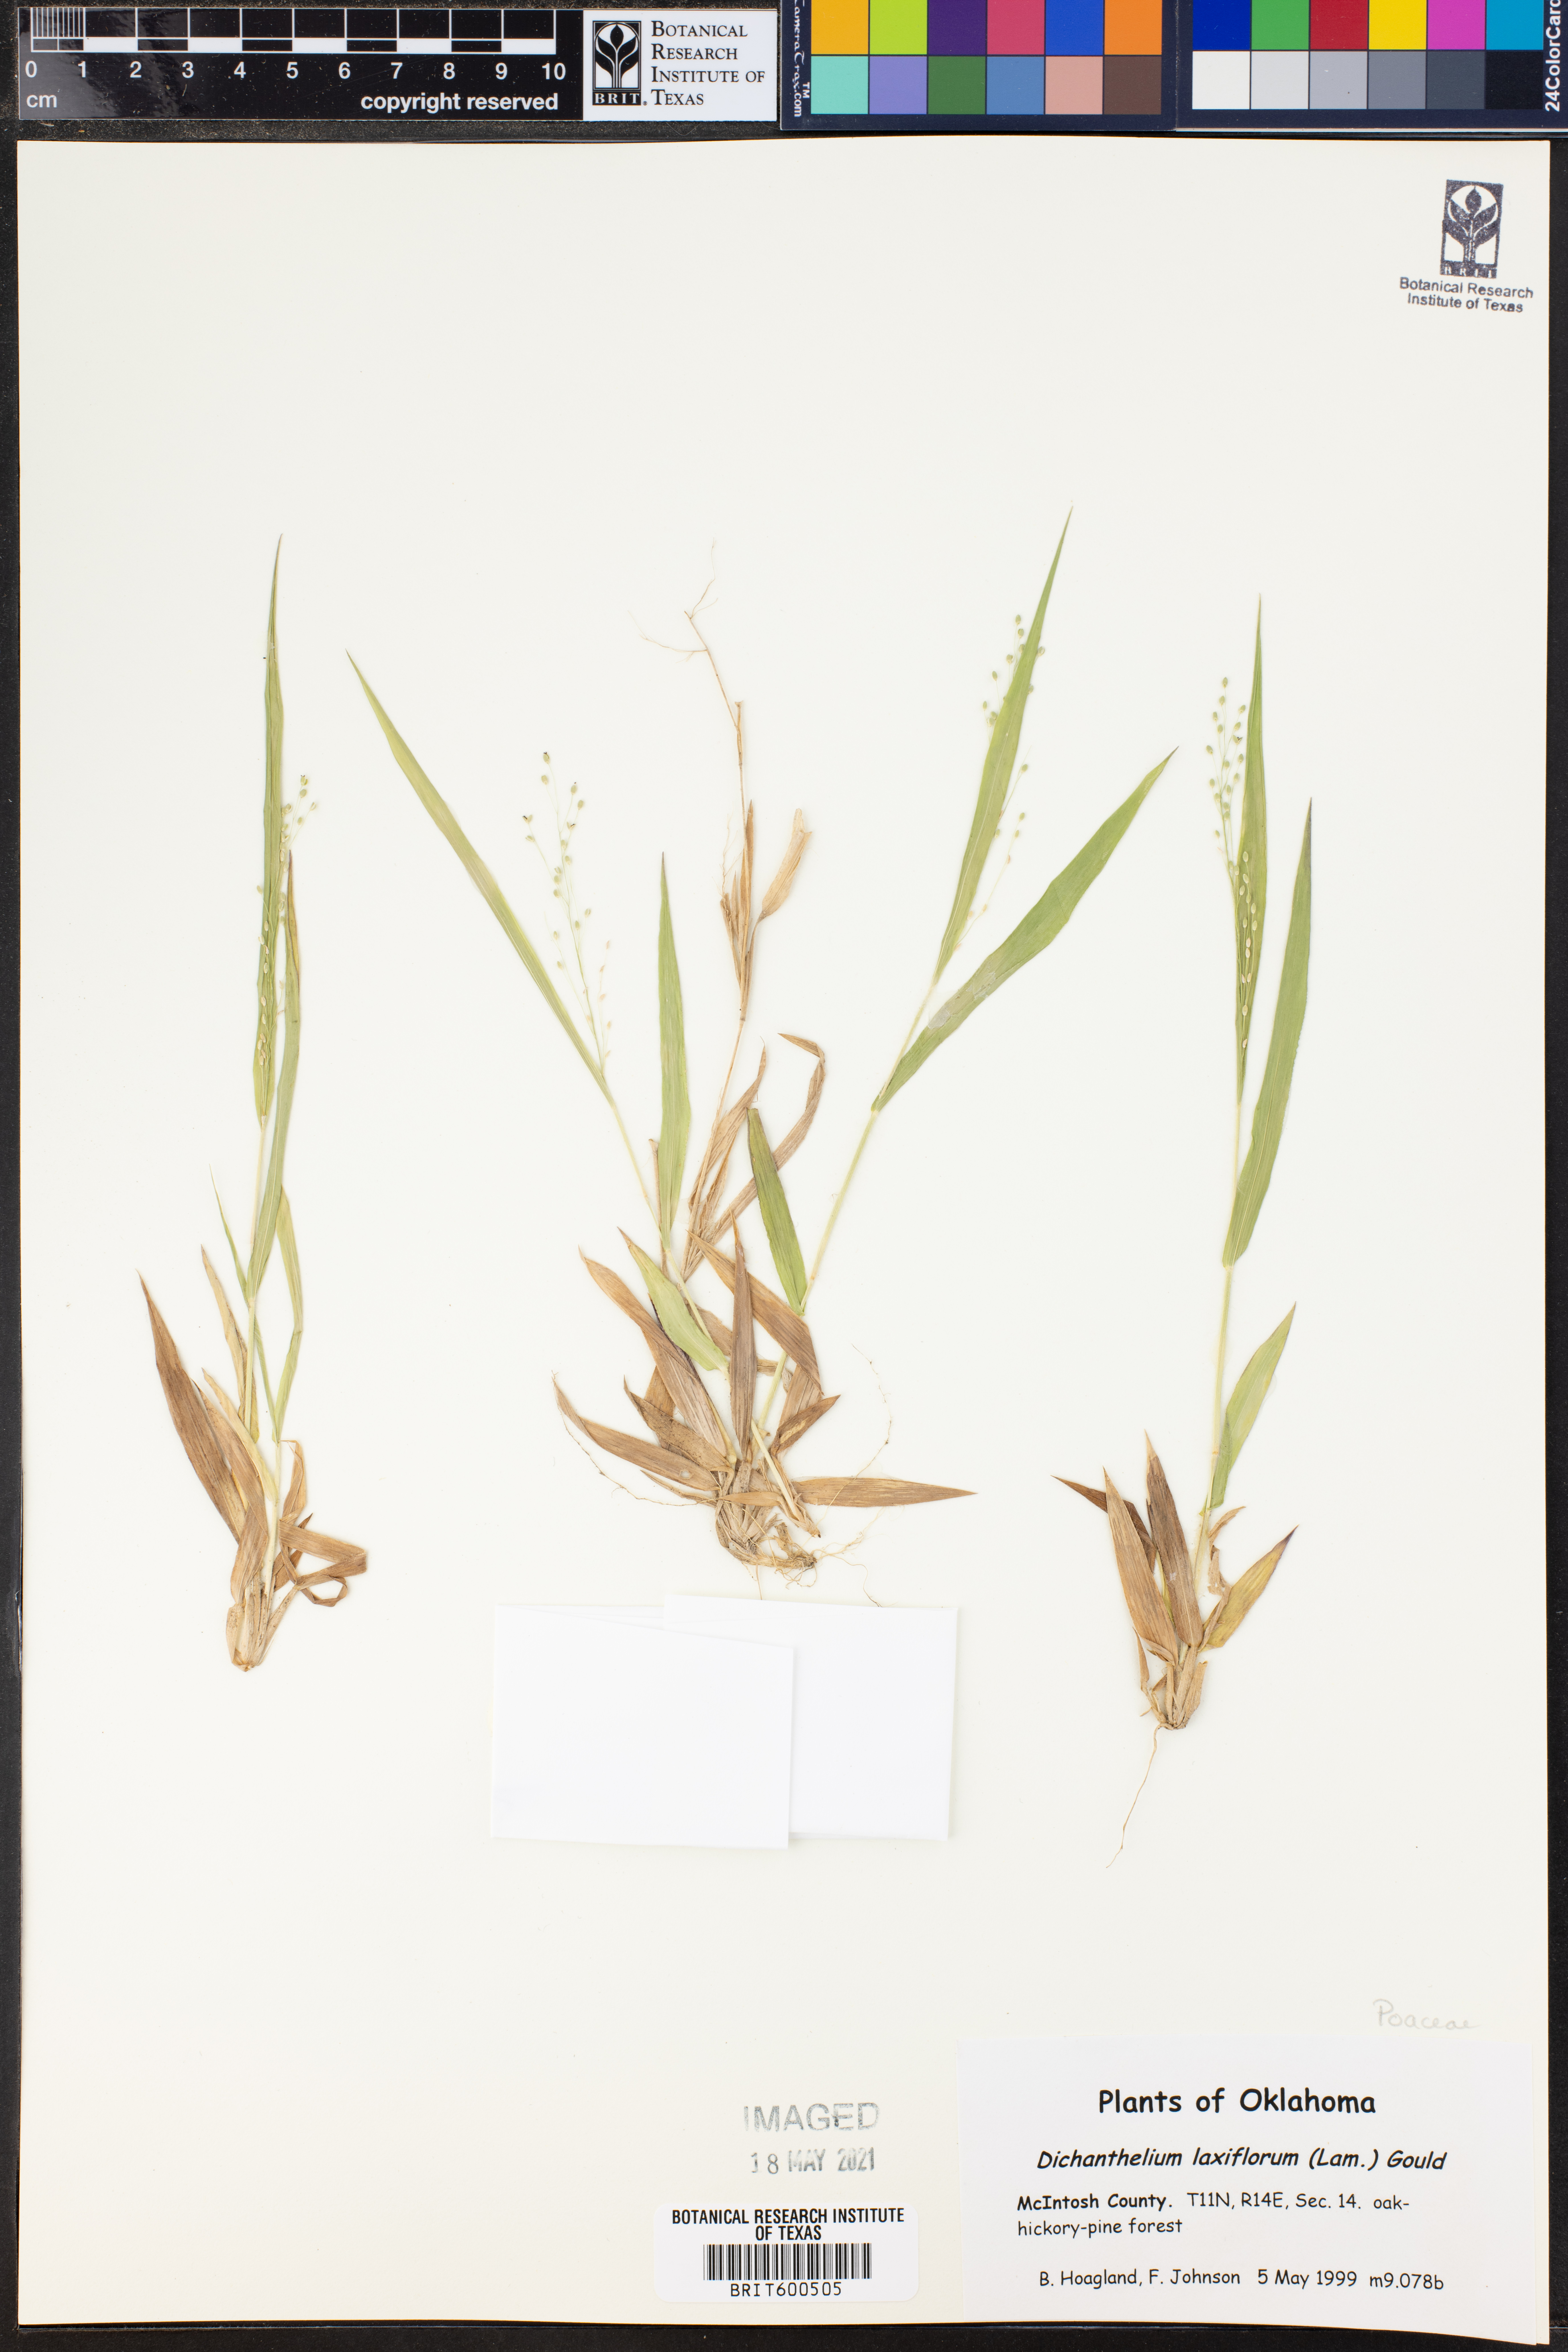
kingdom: Plantae
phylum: Tracheophyta
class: Liliopsida
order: Poales
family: Poaceae
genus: Dichanthelium
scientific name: Dichanthelium laxiflorum
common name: Soft-tuft panic grass
